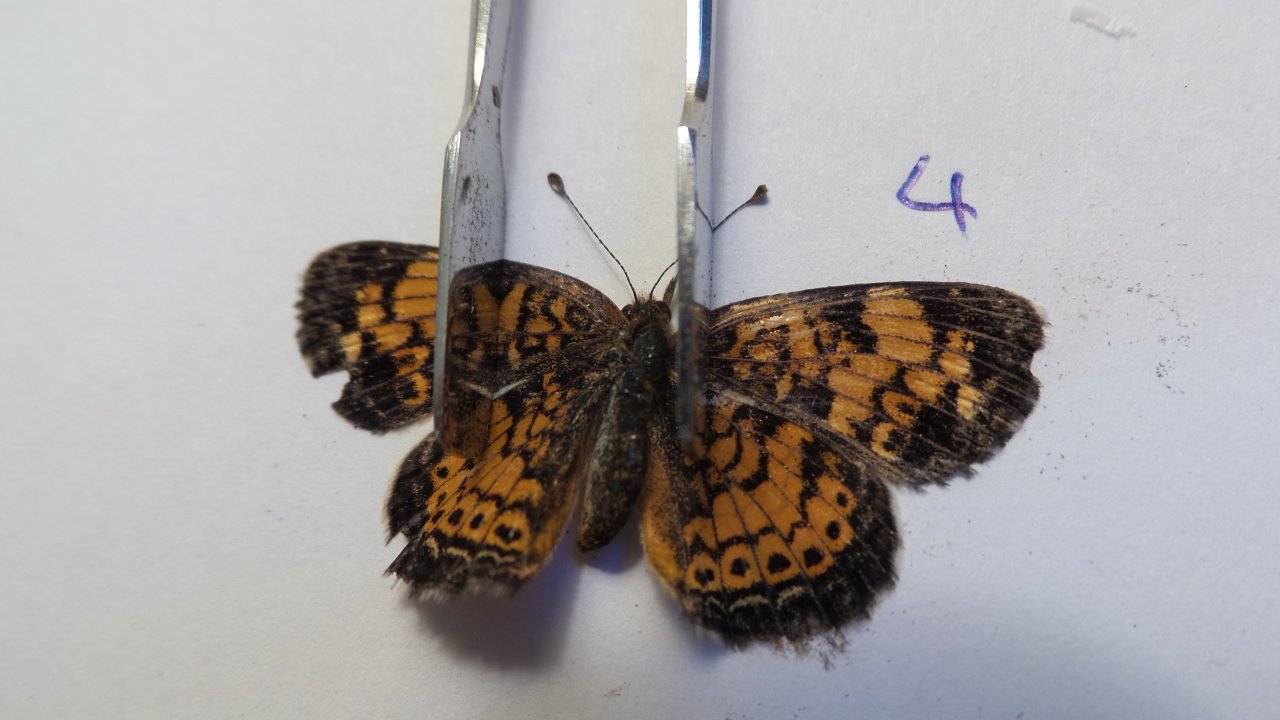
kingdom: Animalia
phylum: Arthropoda
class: Insecta
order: Lepidoptera
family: Nymphalidae
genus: Phyciodes
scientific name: Phyciodes tharos
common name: Pearl Crescent
